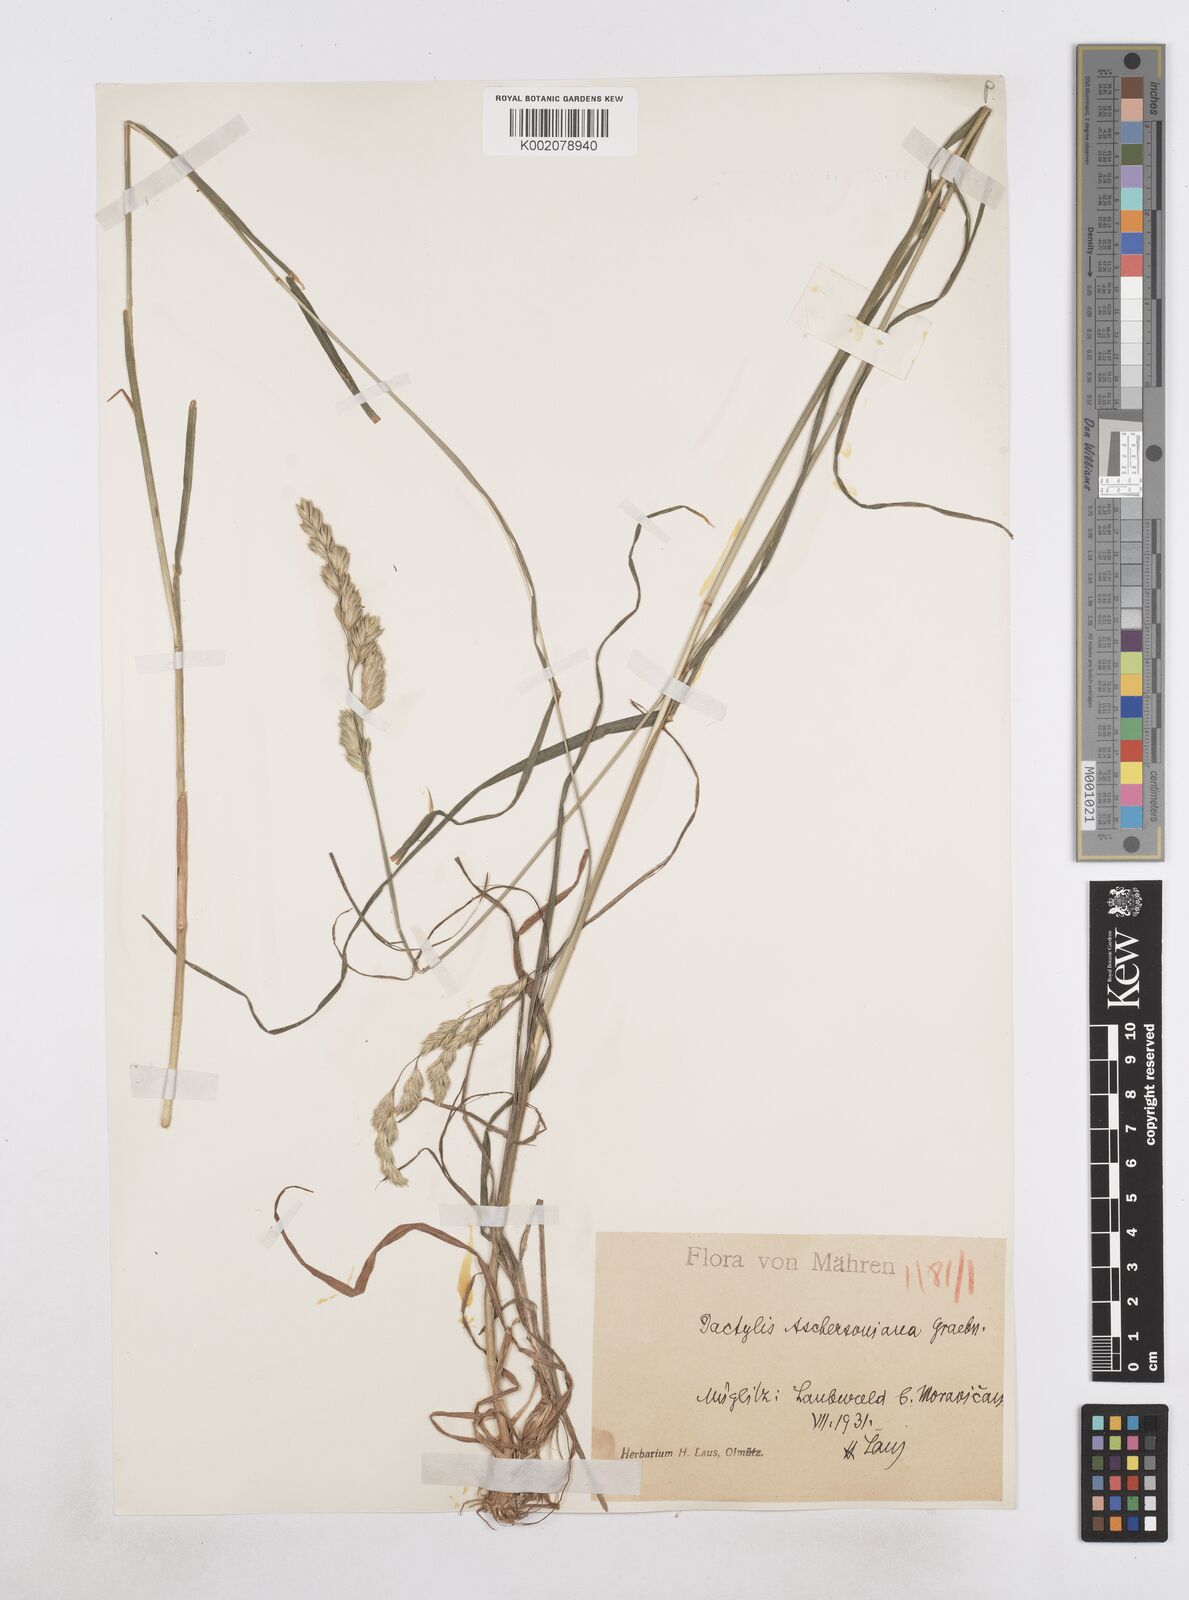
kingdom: Plantae
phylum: Tracheophyta
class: Liliopsida
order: Poales
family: Poaceae
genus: Dactylis
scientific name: Dactylis glomerata
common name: Orchardgrass
